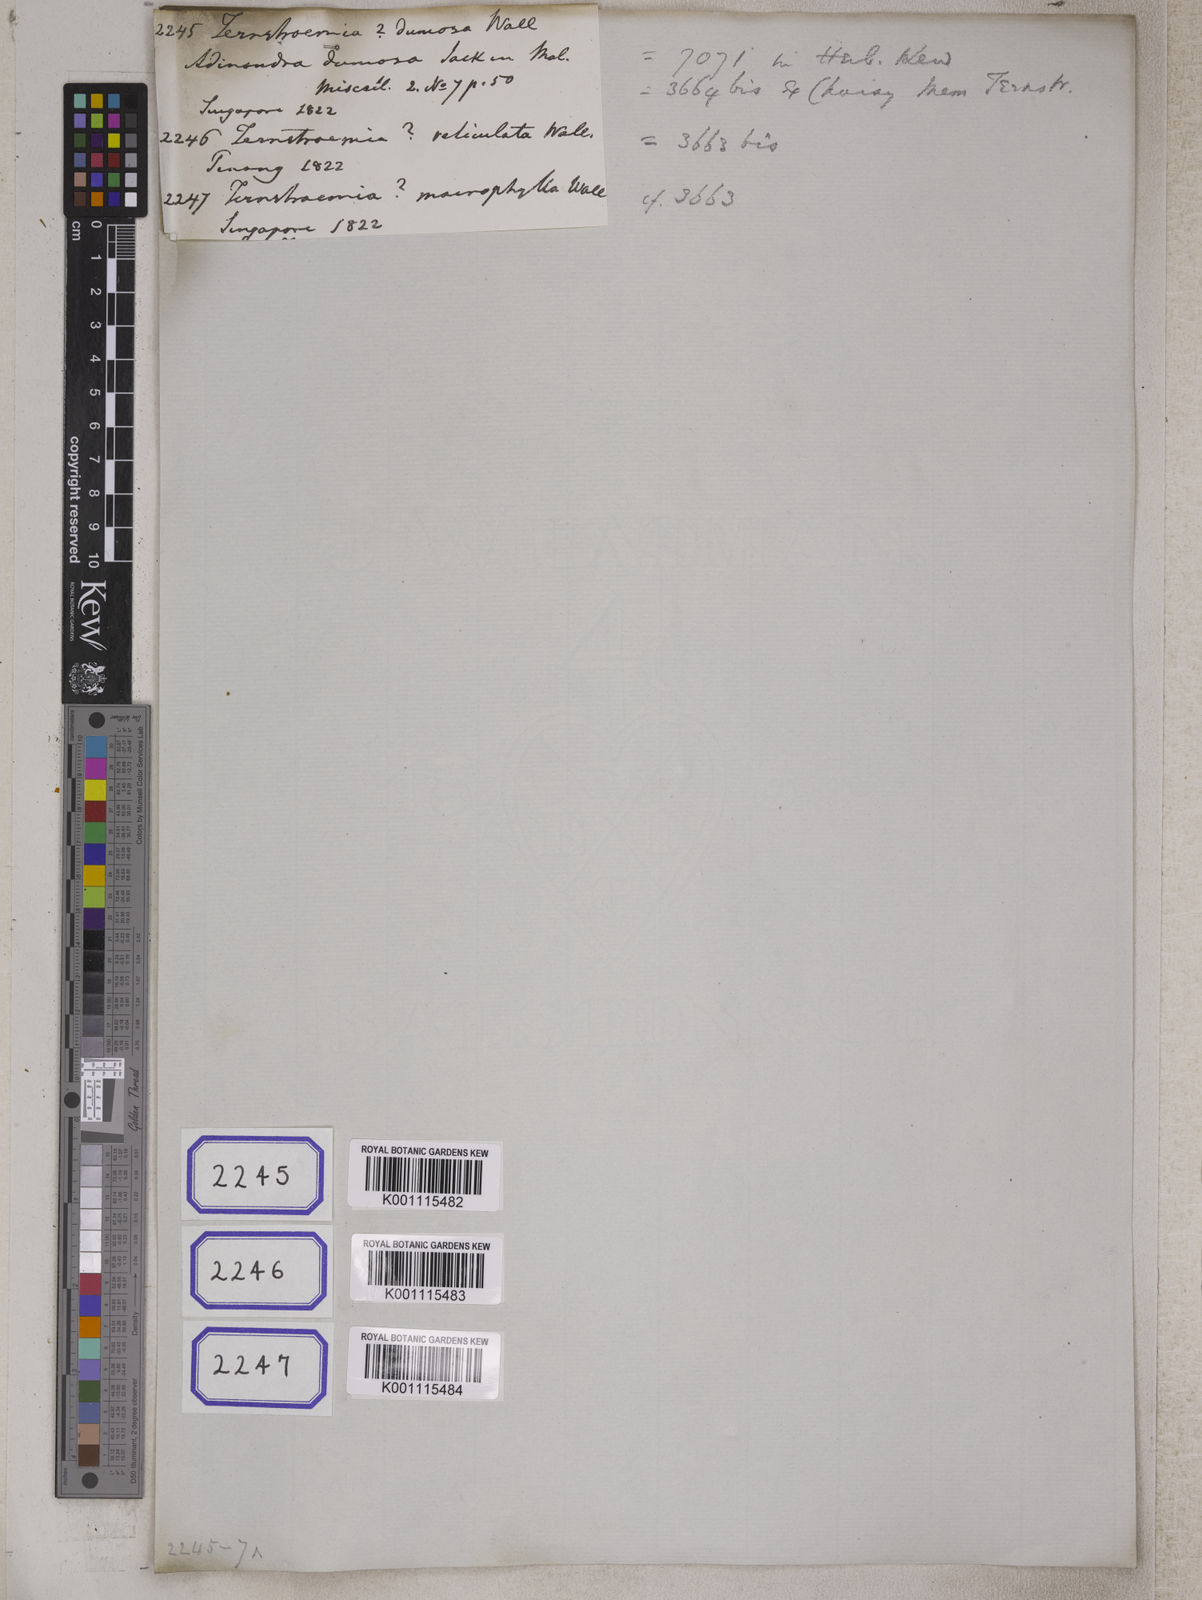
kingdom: Plantae
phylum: Tracheophyta
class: Magnoliopsida
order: Ericales
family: Pentaphylacaceae
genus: Ternstroemia
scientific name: Ternstroemia
